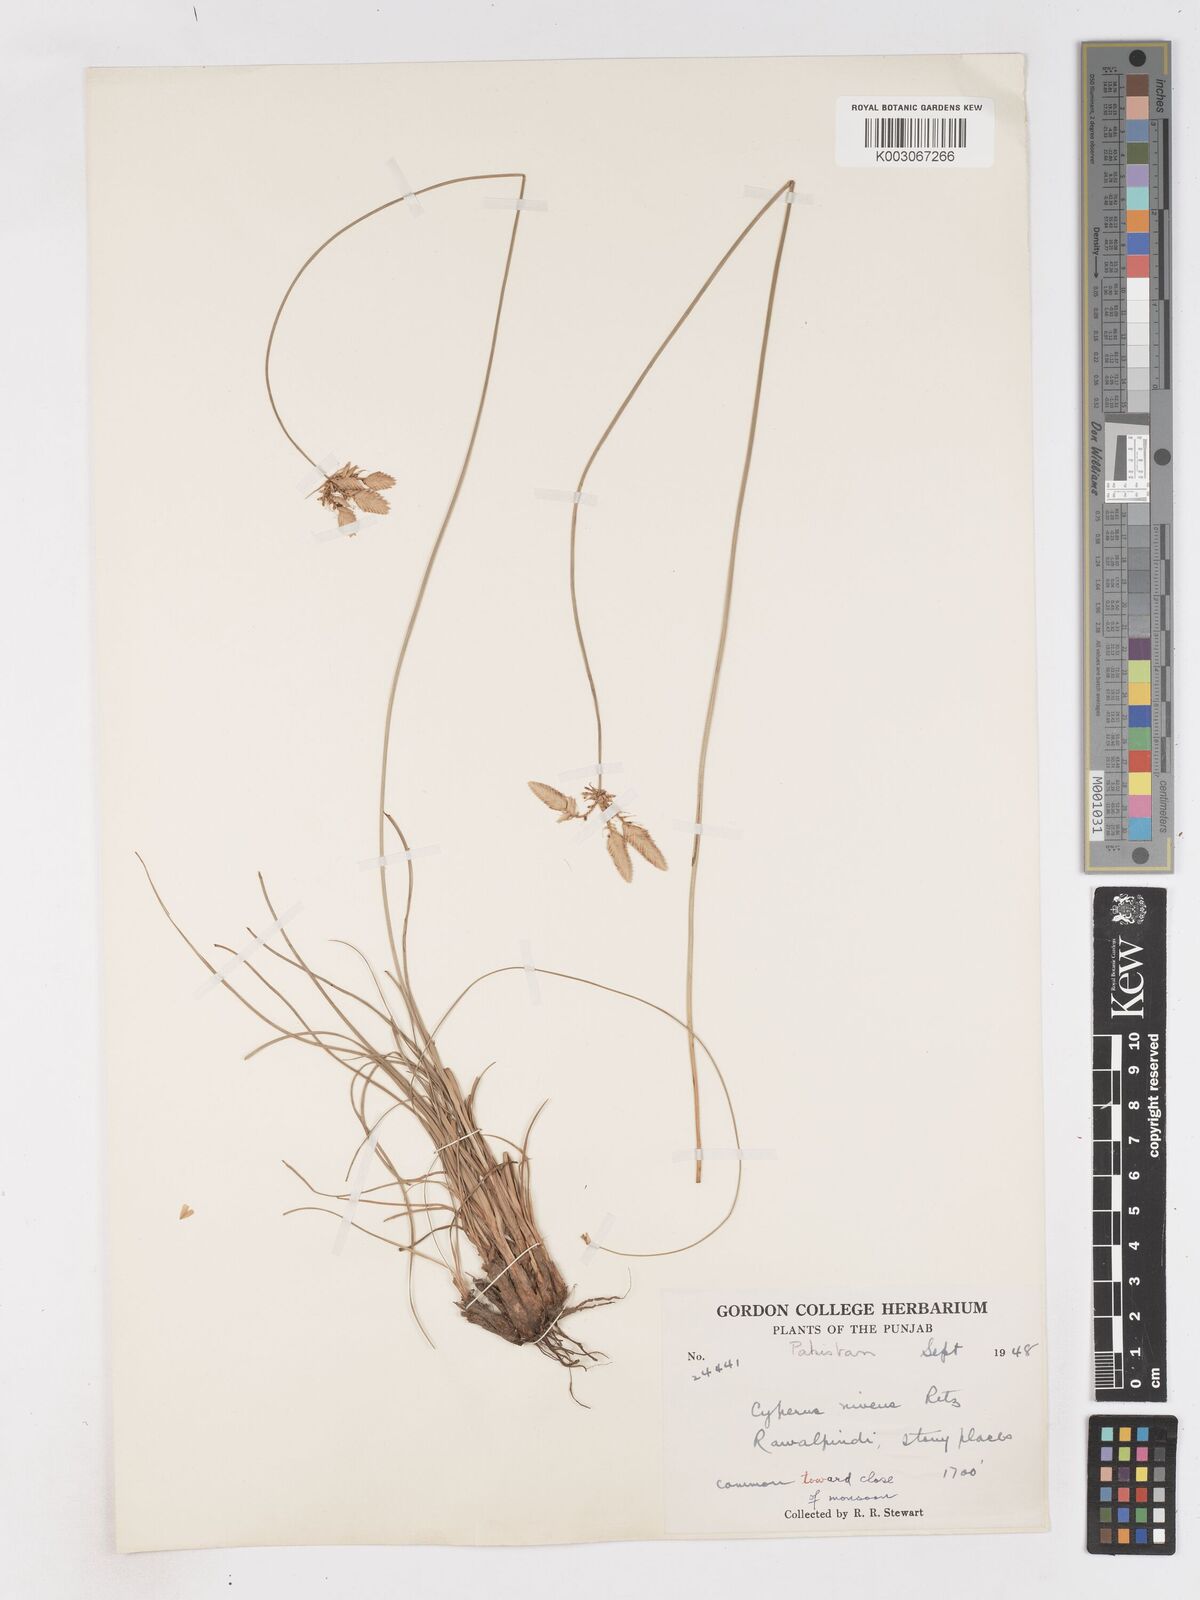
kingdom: Plantae
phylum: Tracheophyta
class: Liliopsida
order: Poales
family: Cyperaceae
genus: Cyperus
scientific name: Cyperus niveus
